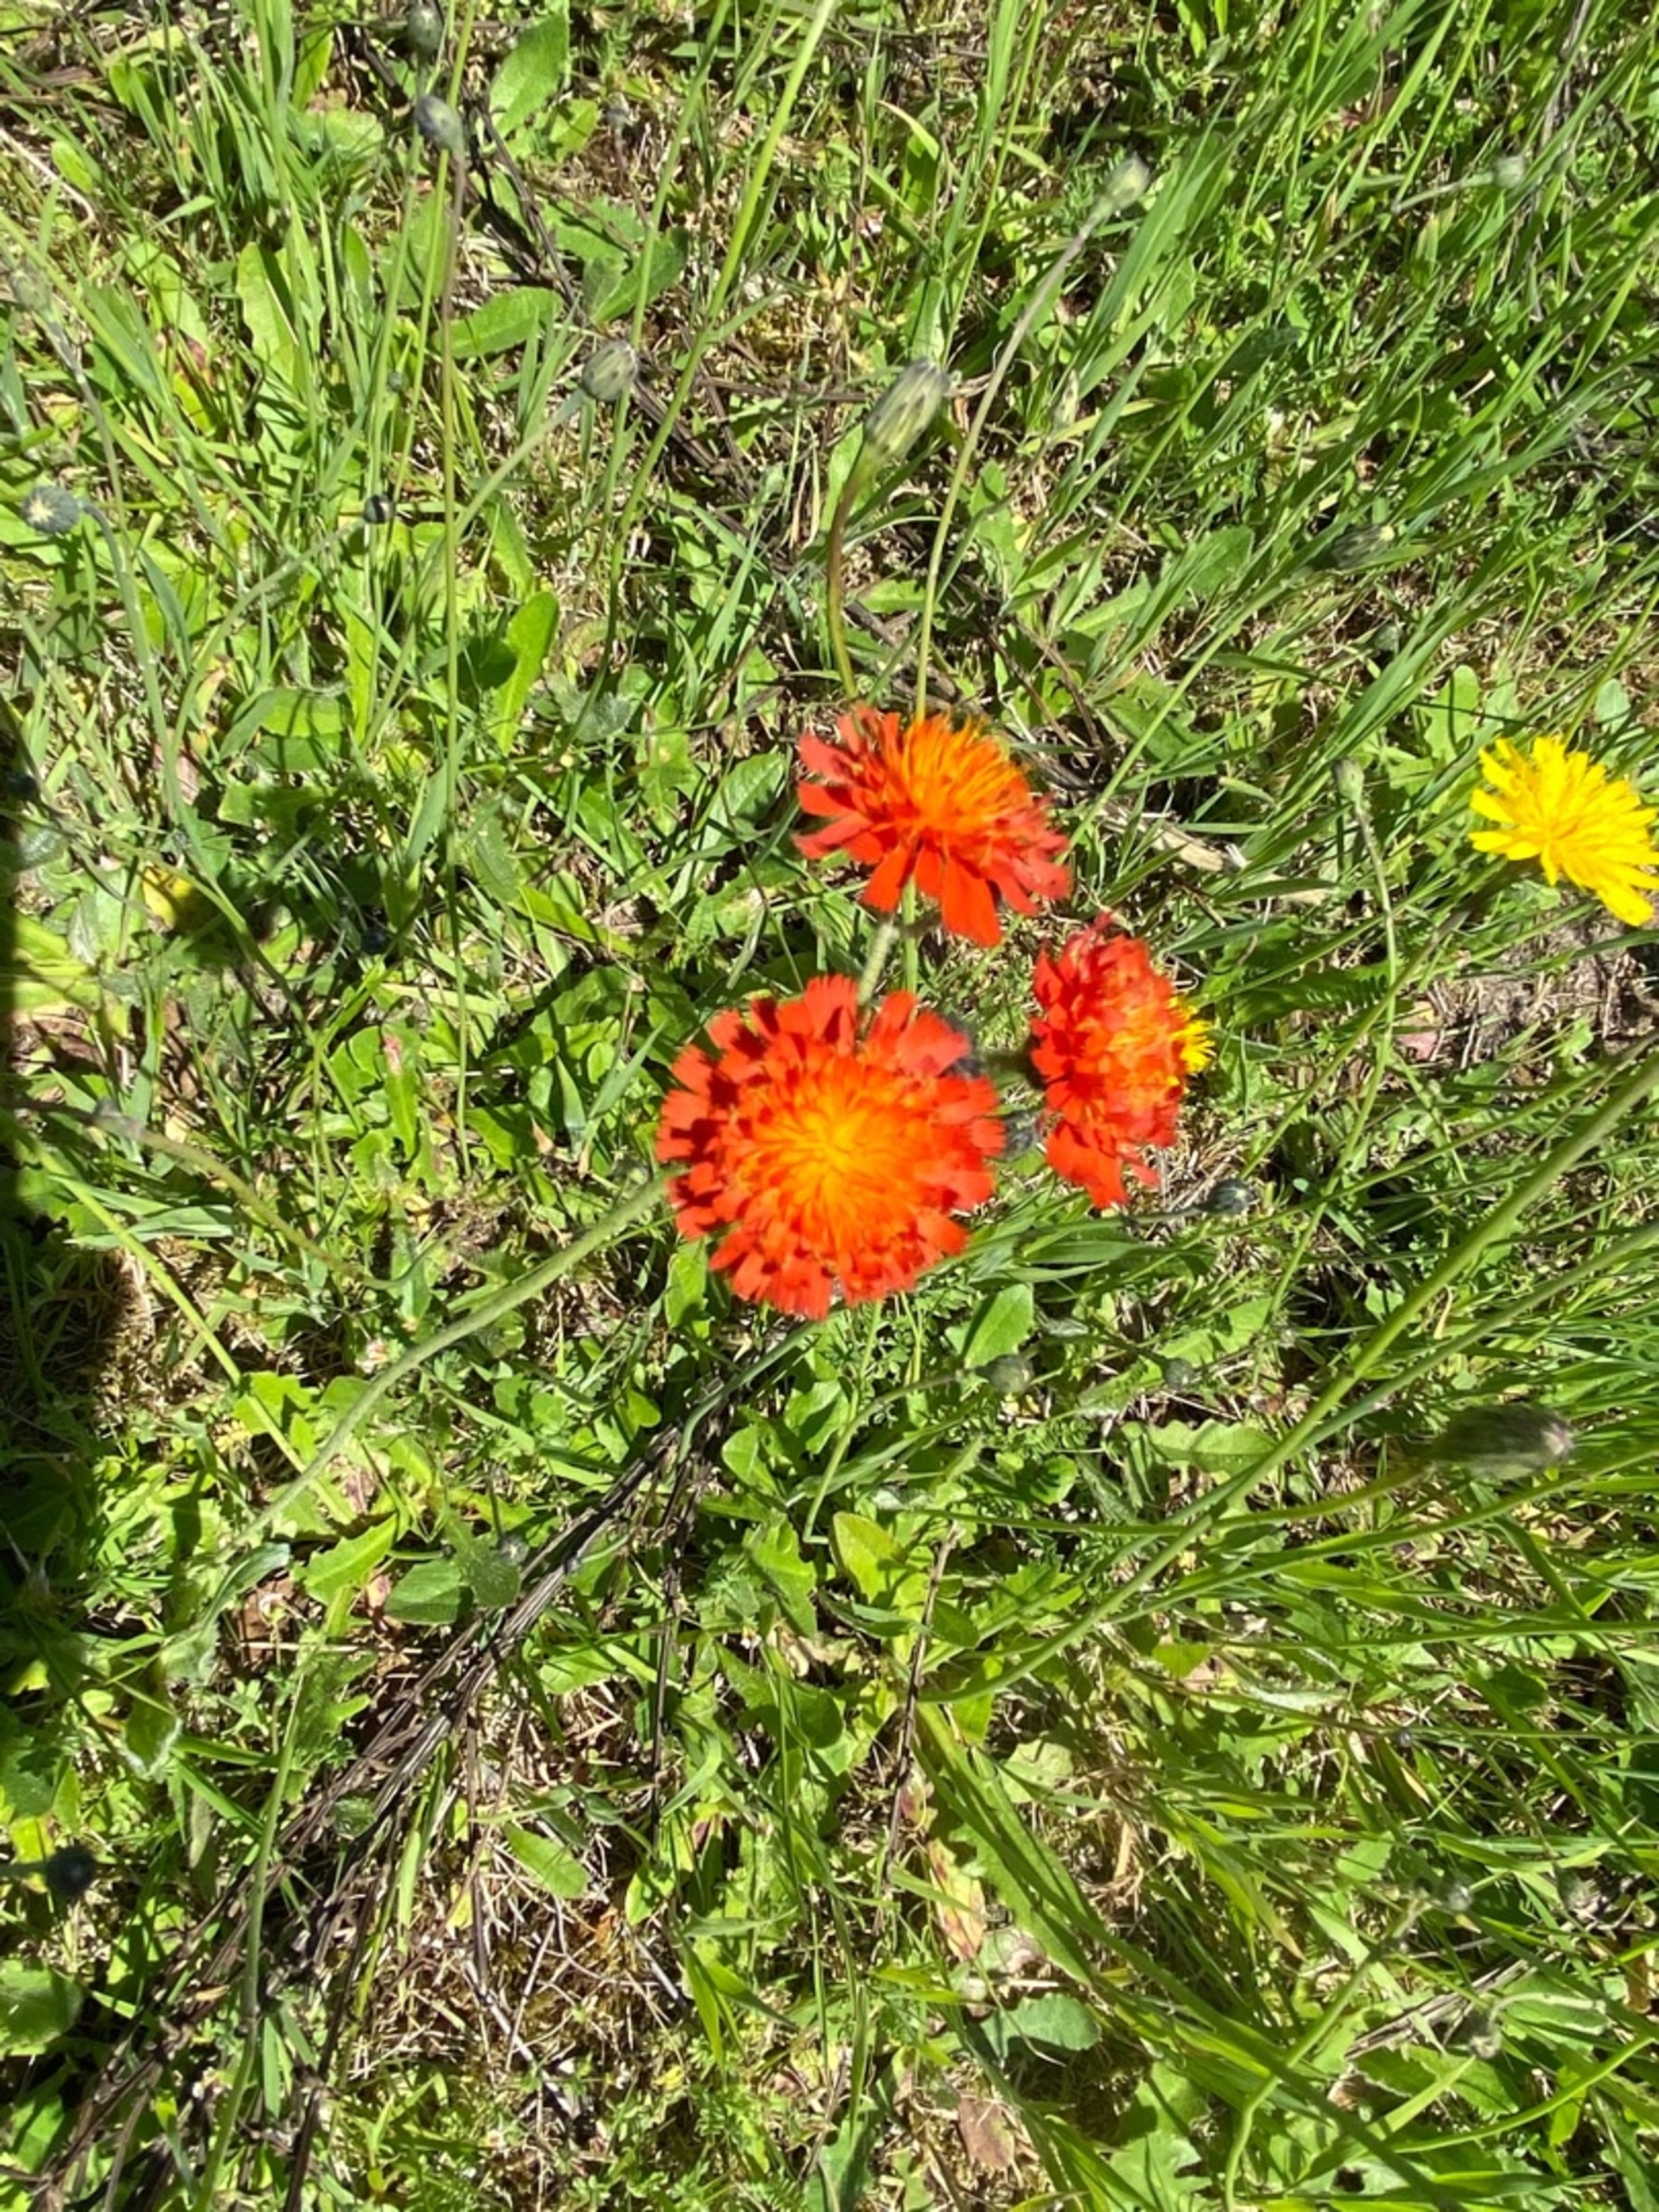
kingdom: Plantae
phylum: Tracheophyta
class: Magnoliopsida
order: Asterales
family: Asteraceae
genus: Pilosella
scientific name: Pilosella aurantiaca
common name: Pomerans-høgeurt
